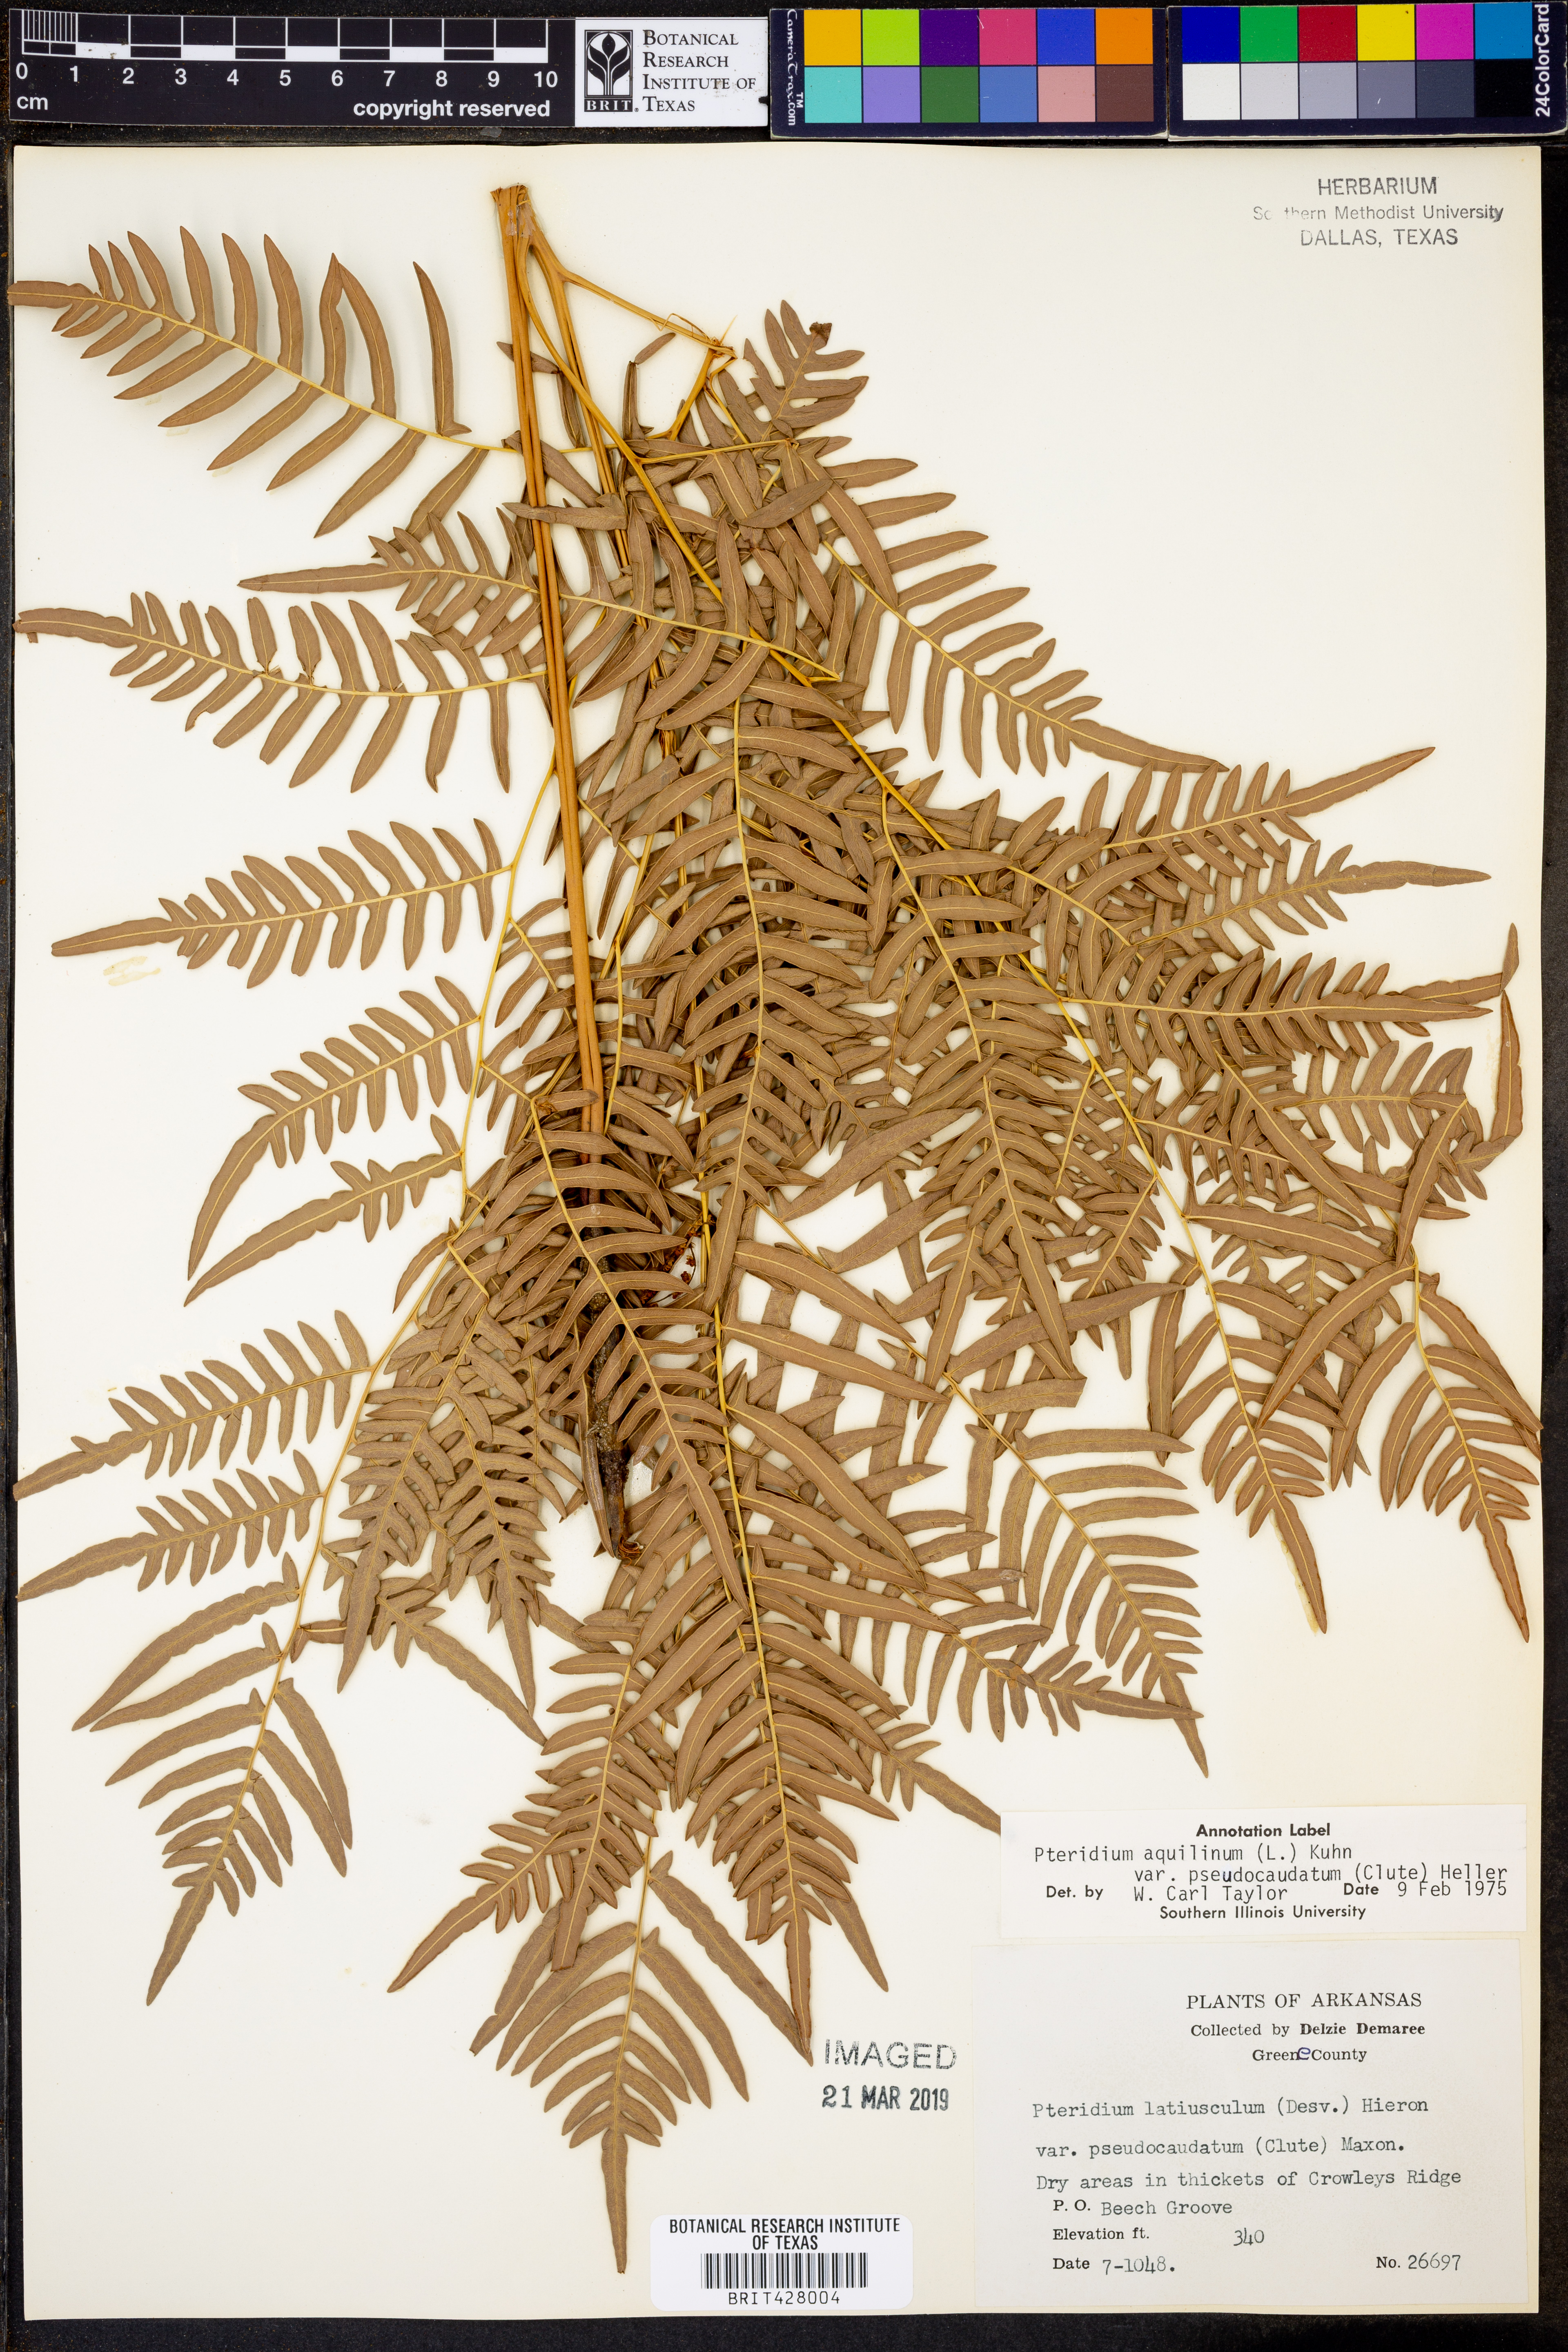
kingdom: Plantae
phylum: Tracheophyta
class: Polypodiopsida
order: Polypodiales
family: Dennstaedtiaceae
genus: Pteridium
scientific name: Pteridium aquilinum
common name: Bracken
